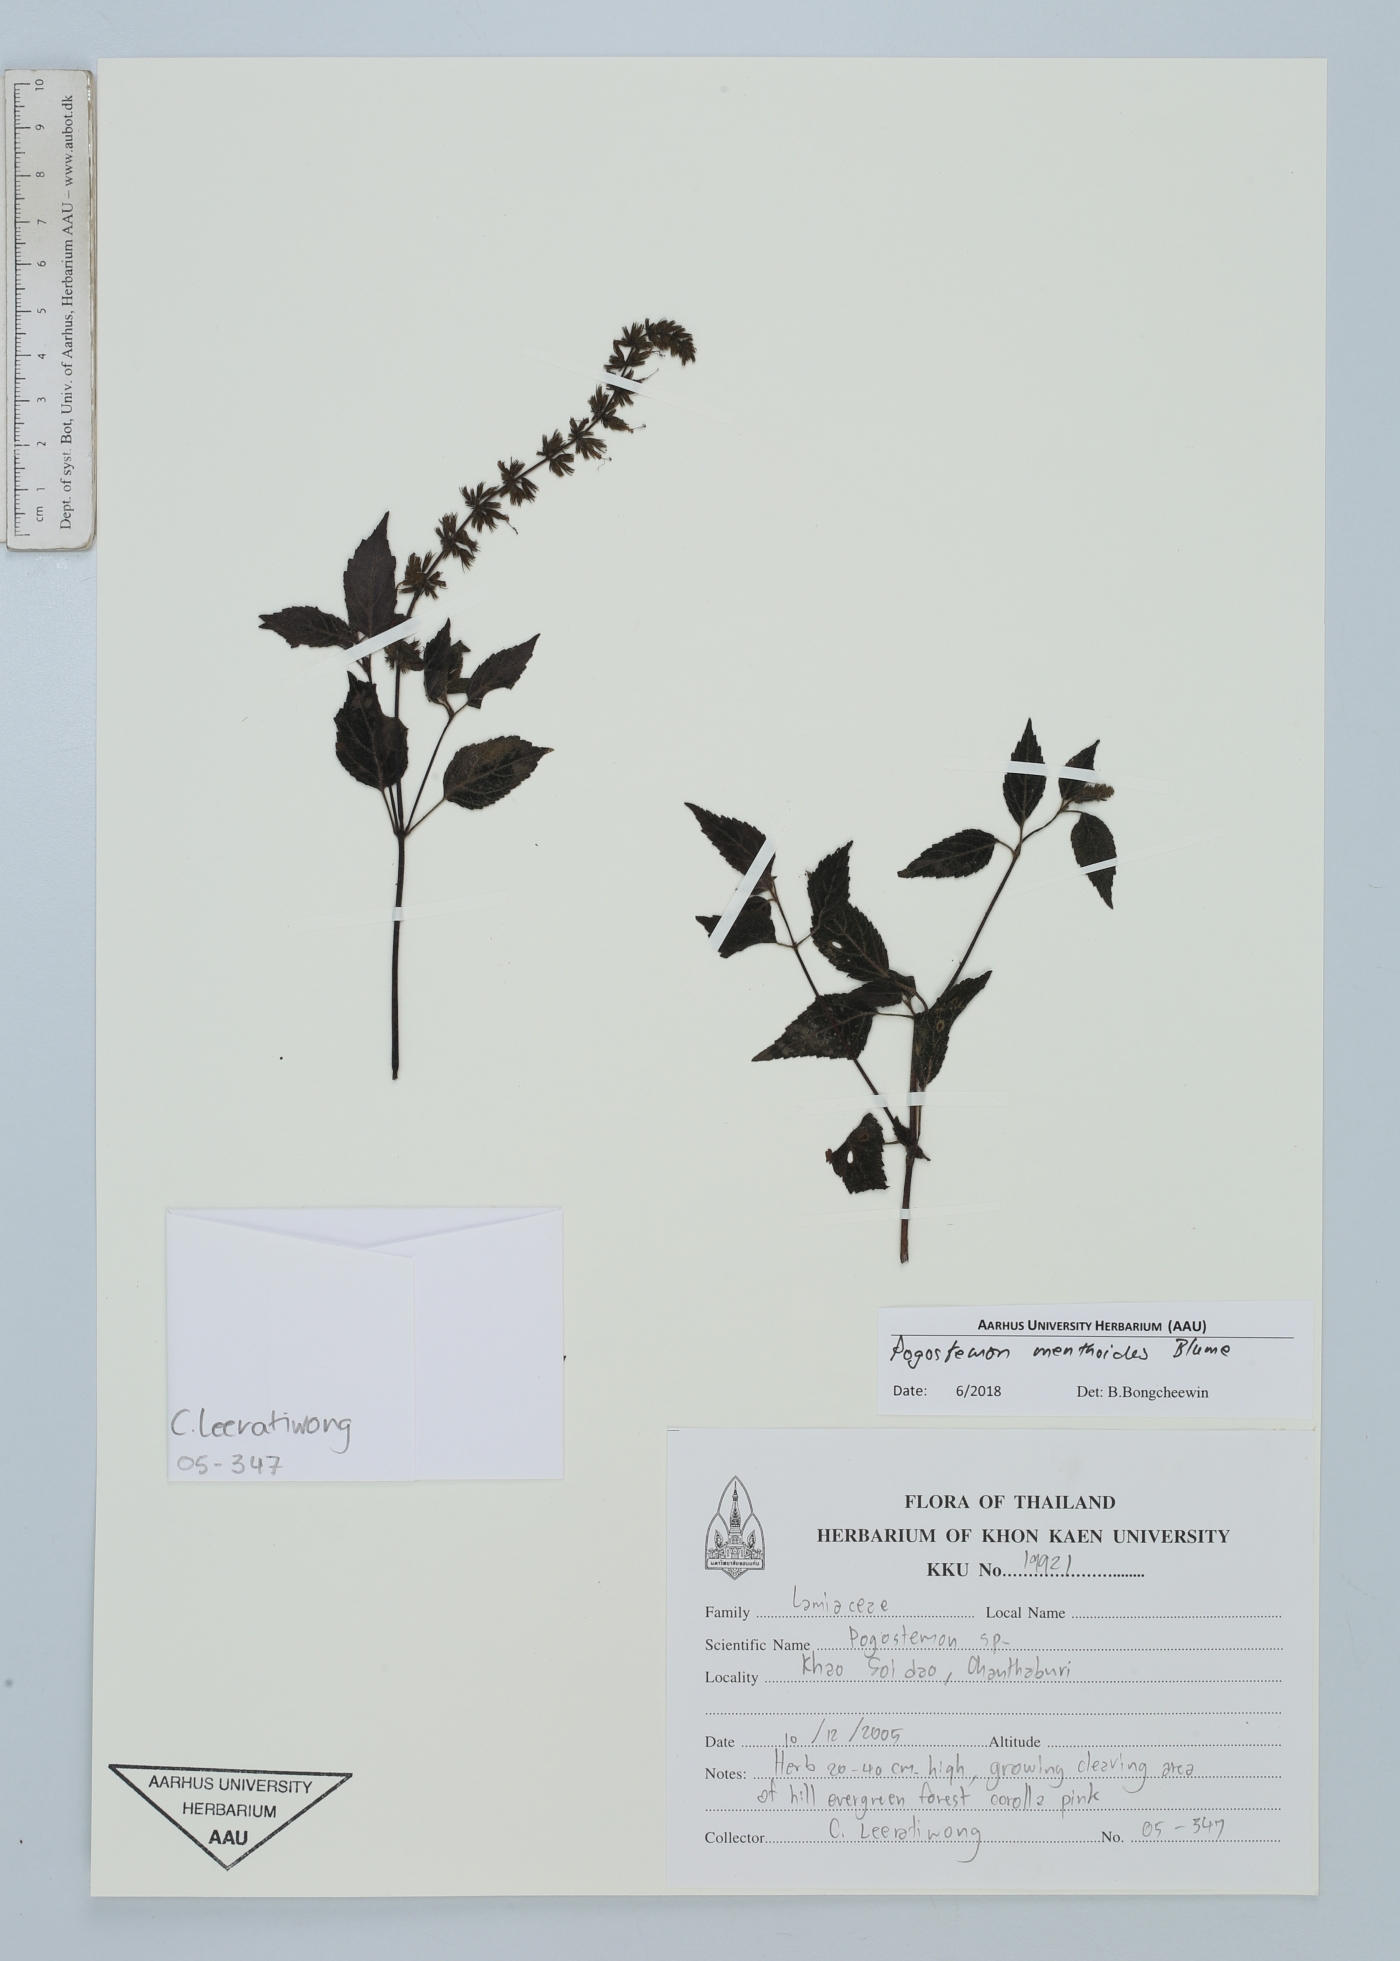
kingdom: Plantae
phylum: Tracheophyta
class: Magnoliopsida
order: Lamiales
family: Lamiaceae
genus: Pogostemon
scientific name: Pogostemon menthoides
